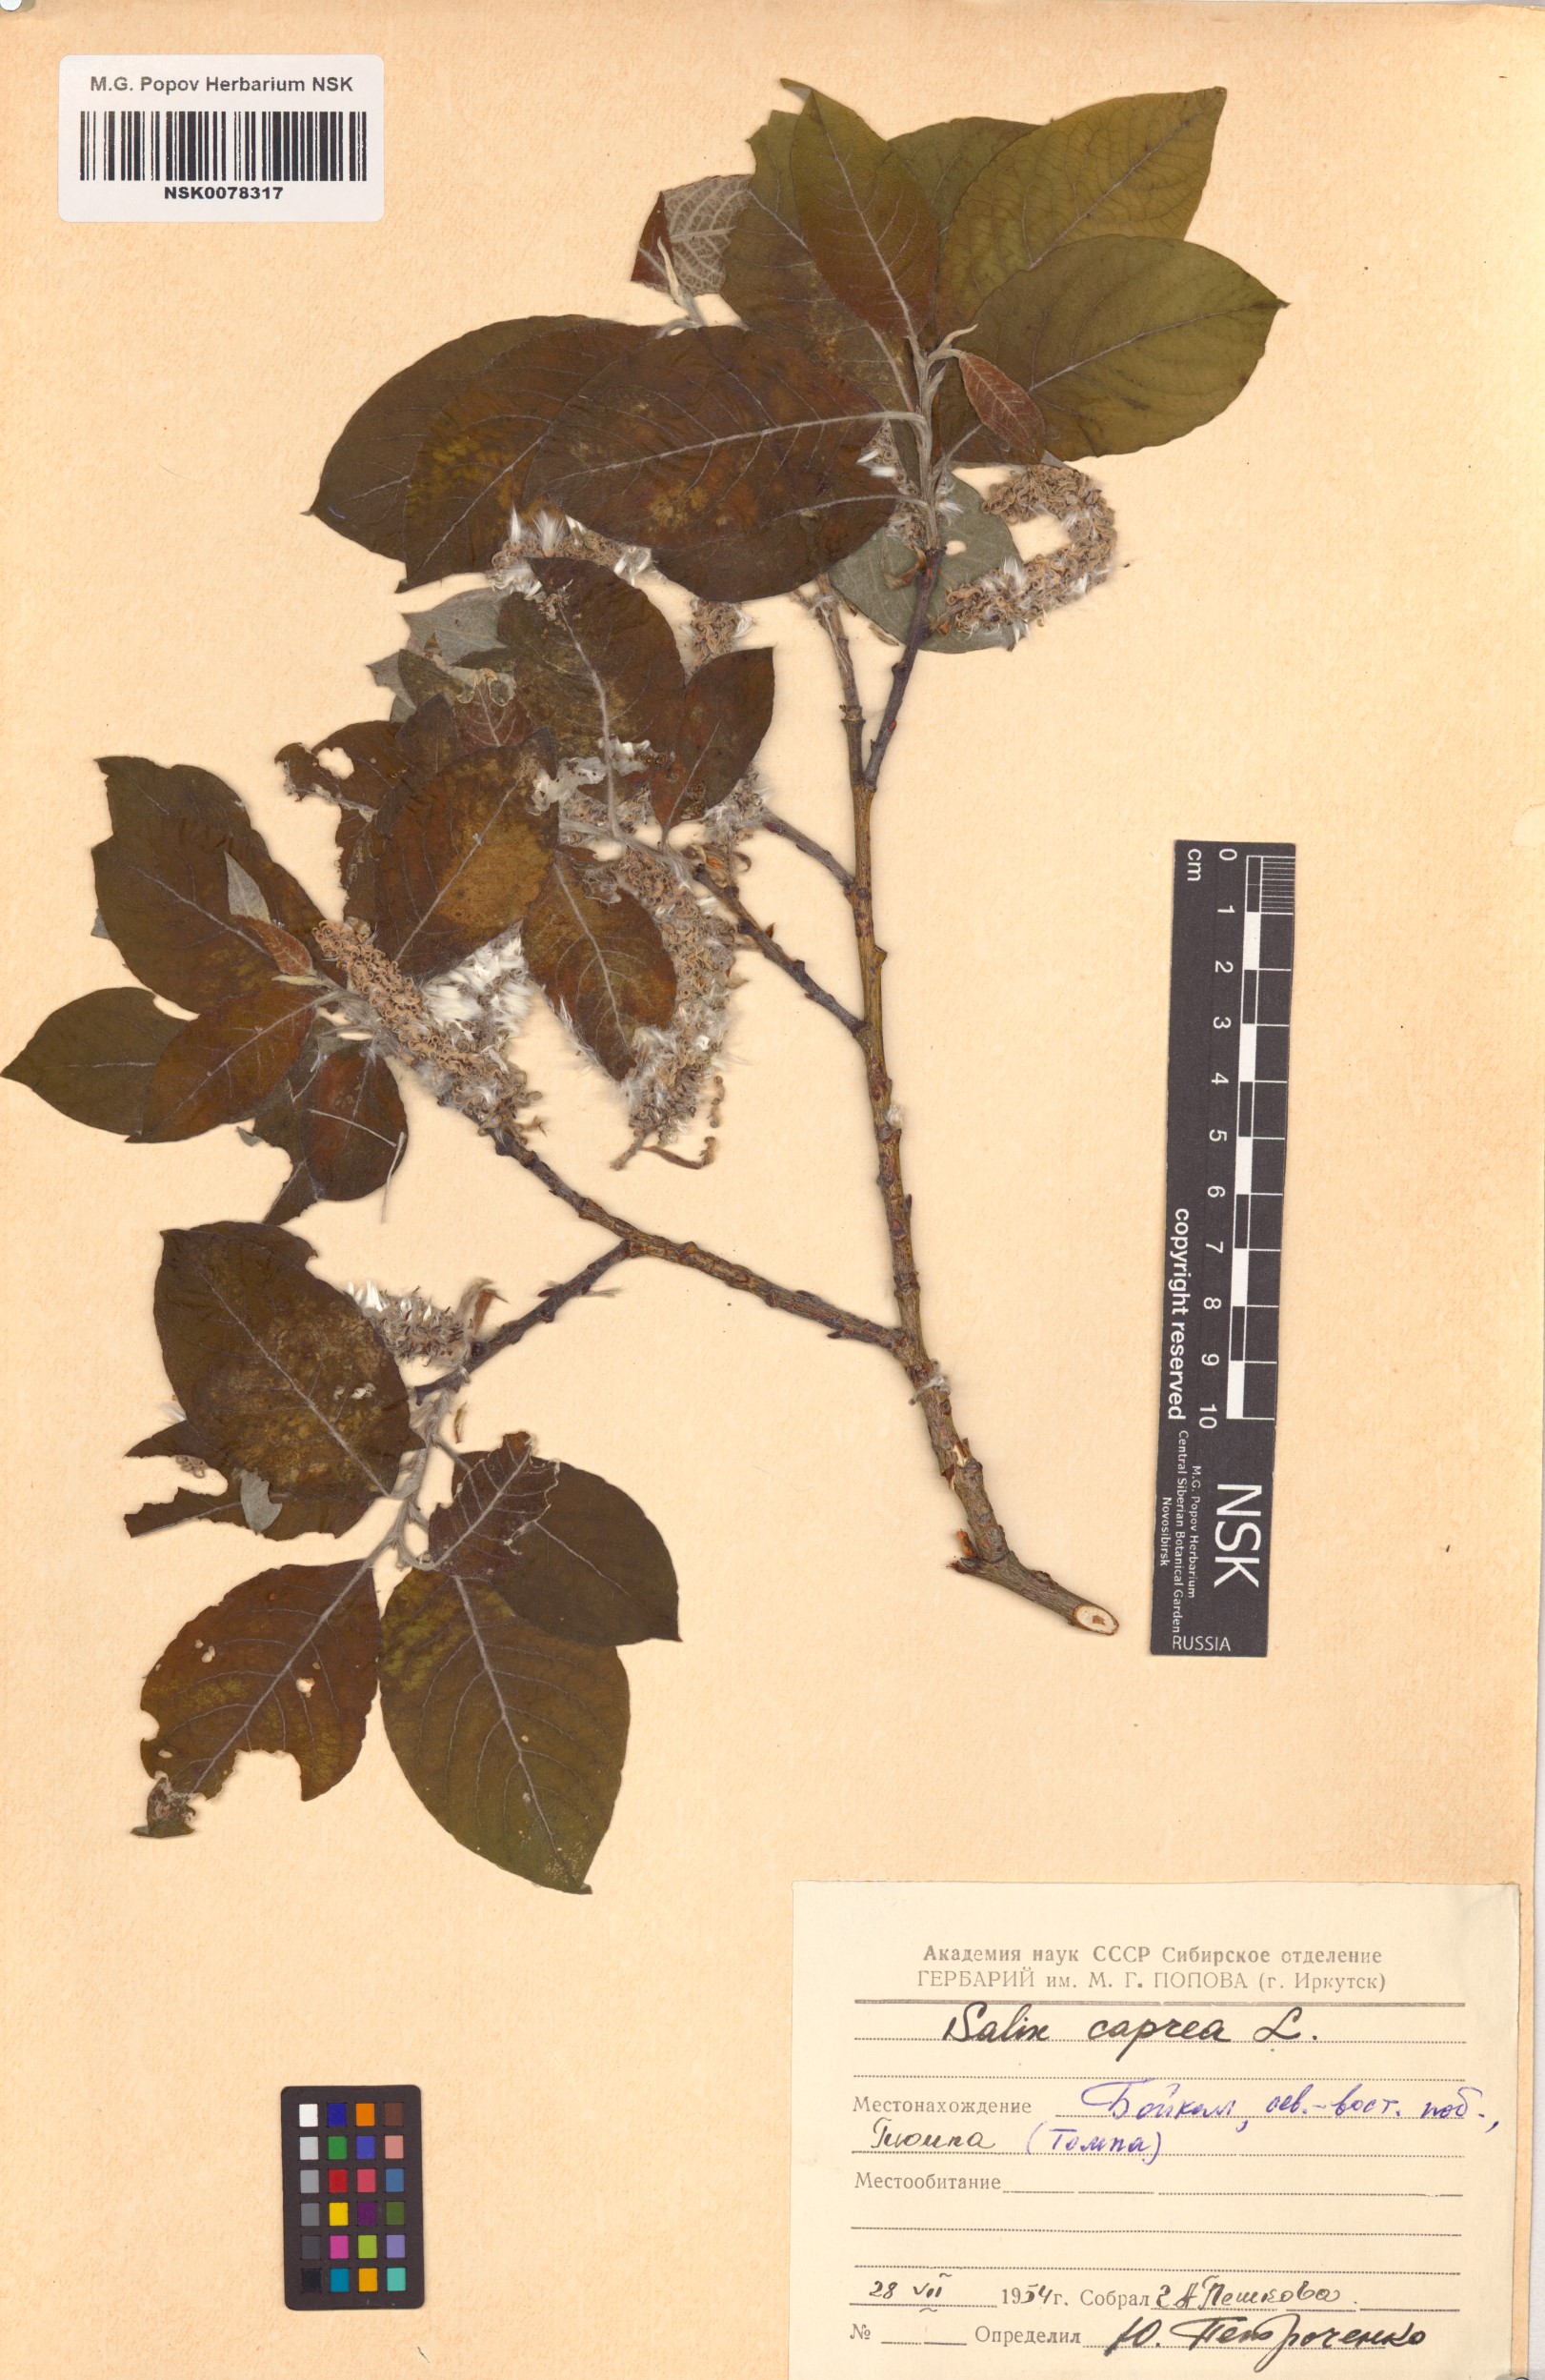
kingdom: Plantae
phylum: Tracheophyta
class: Magnoliopsida
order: Malpighiales
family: Salicaceae
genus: Salix
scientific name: Salix caprea
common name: Goat willow
